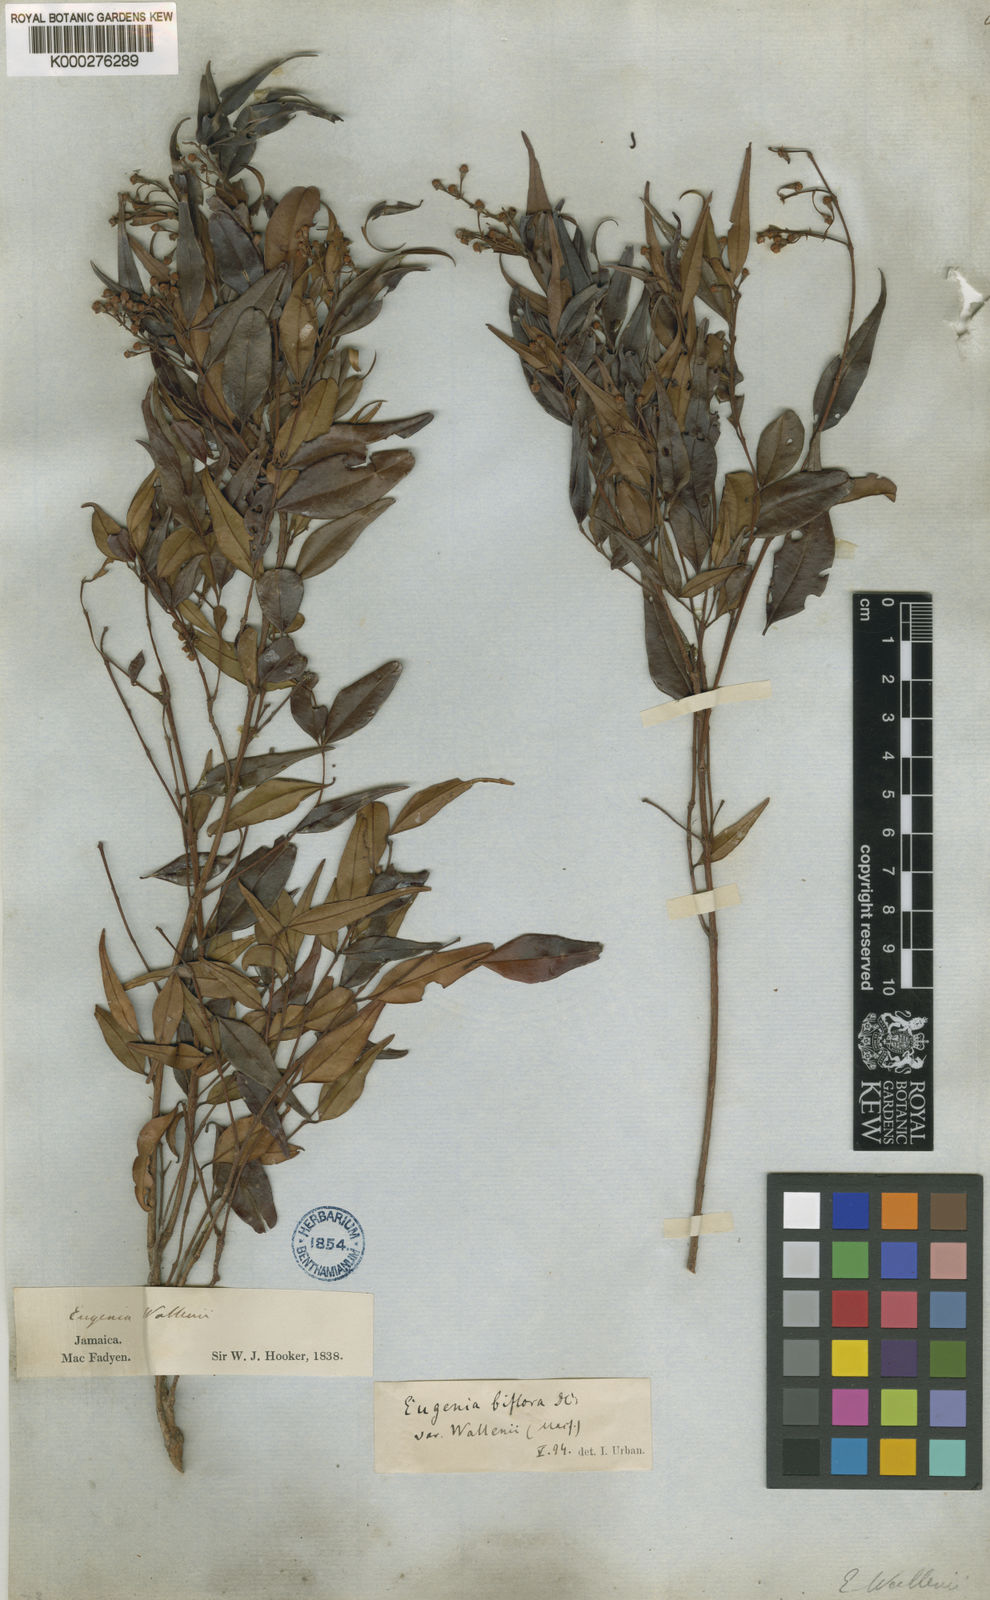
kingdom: Plantae
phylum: Tracheophyta
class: Magnoliopsida
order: Myrtales
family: Myrtaceae
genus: Eugenia
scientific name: Eugenia biflora
